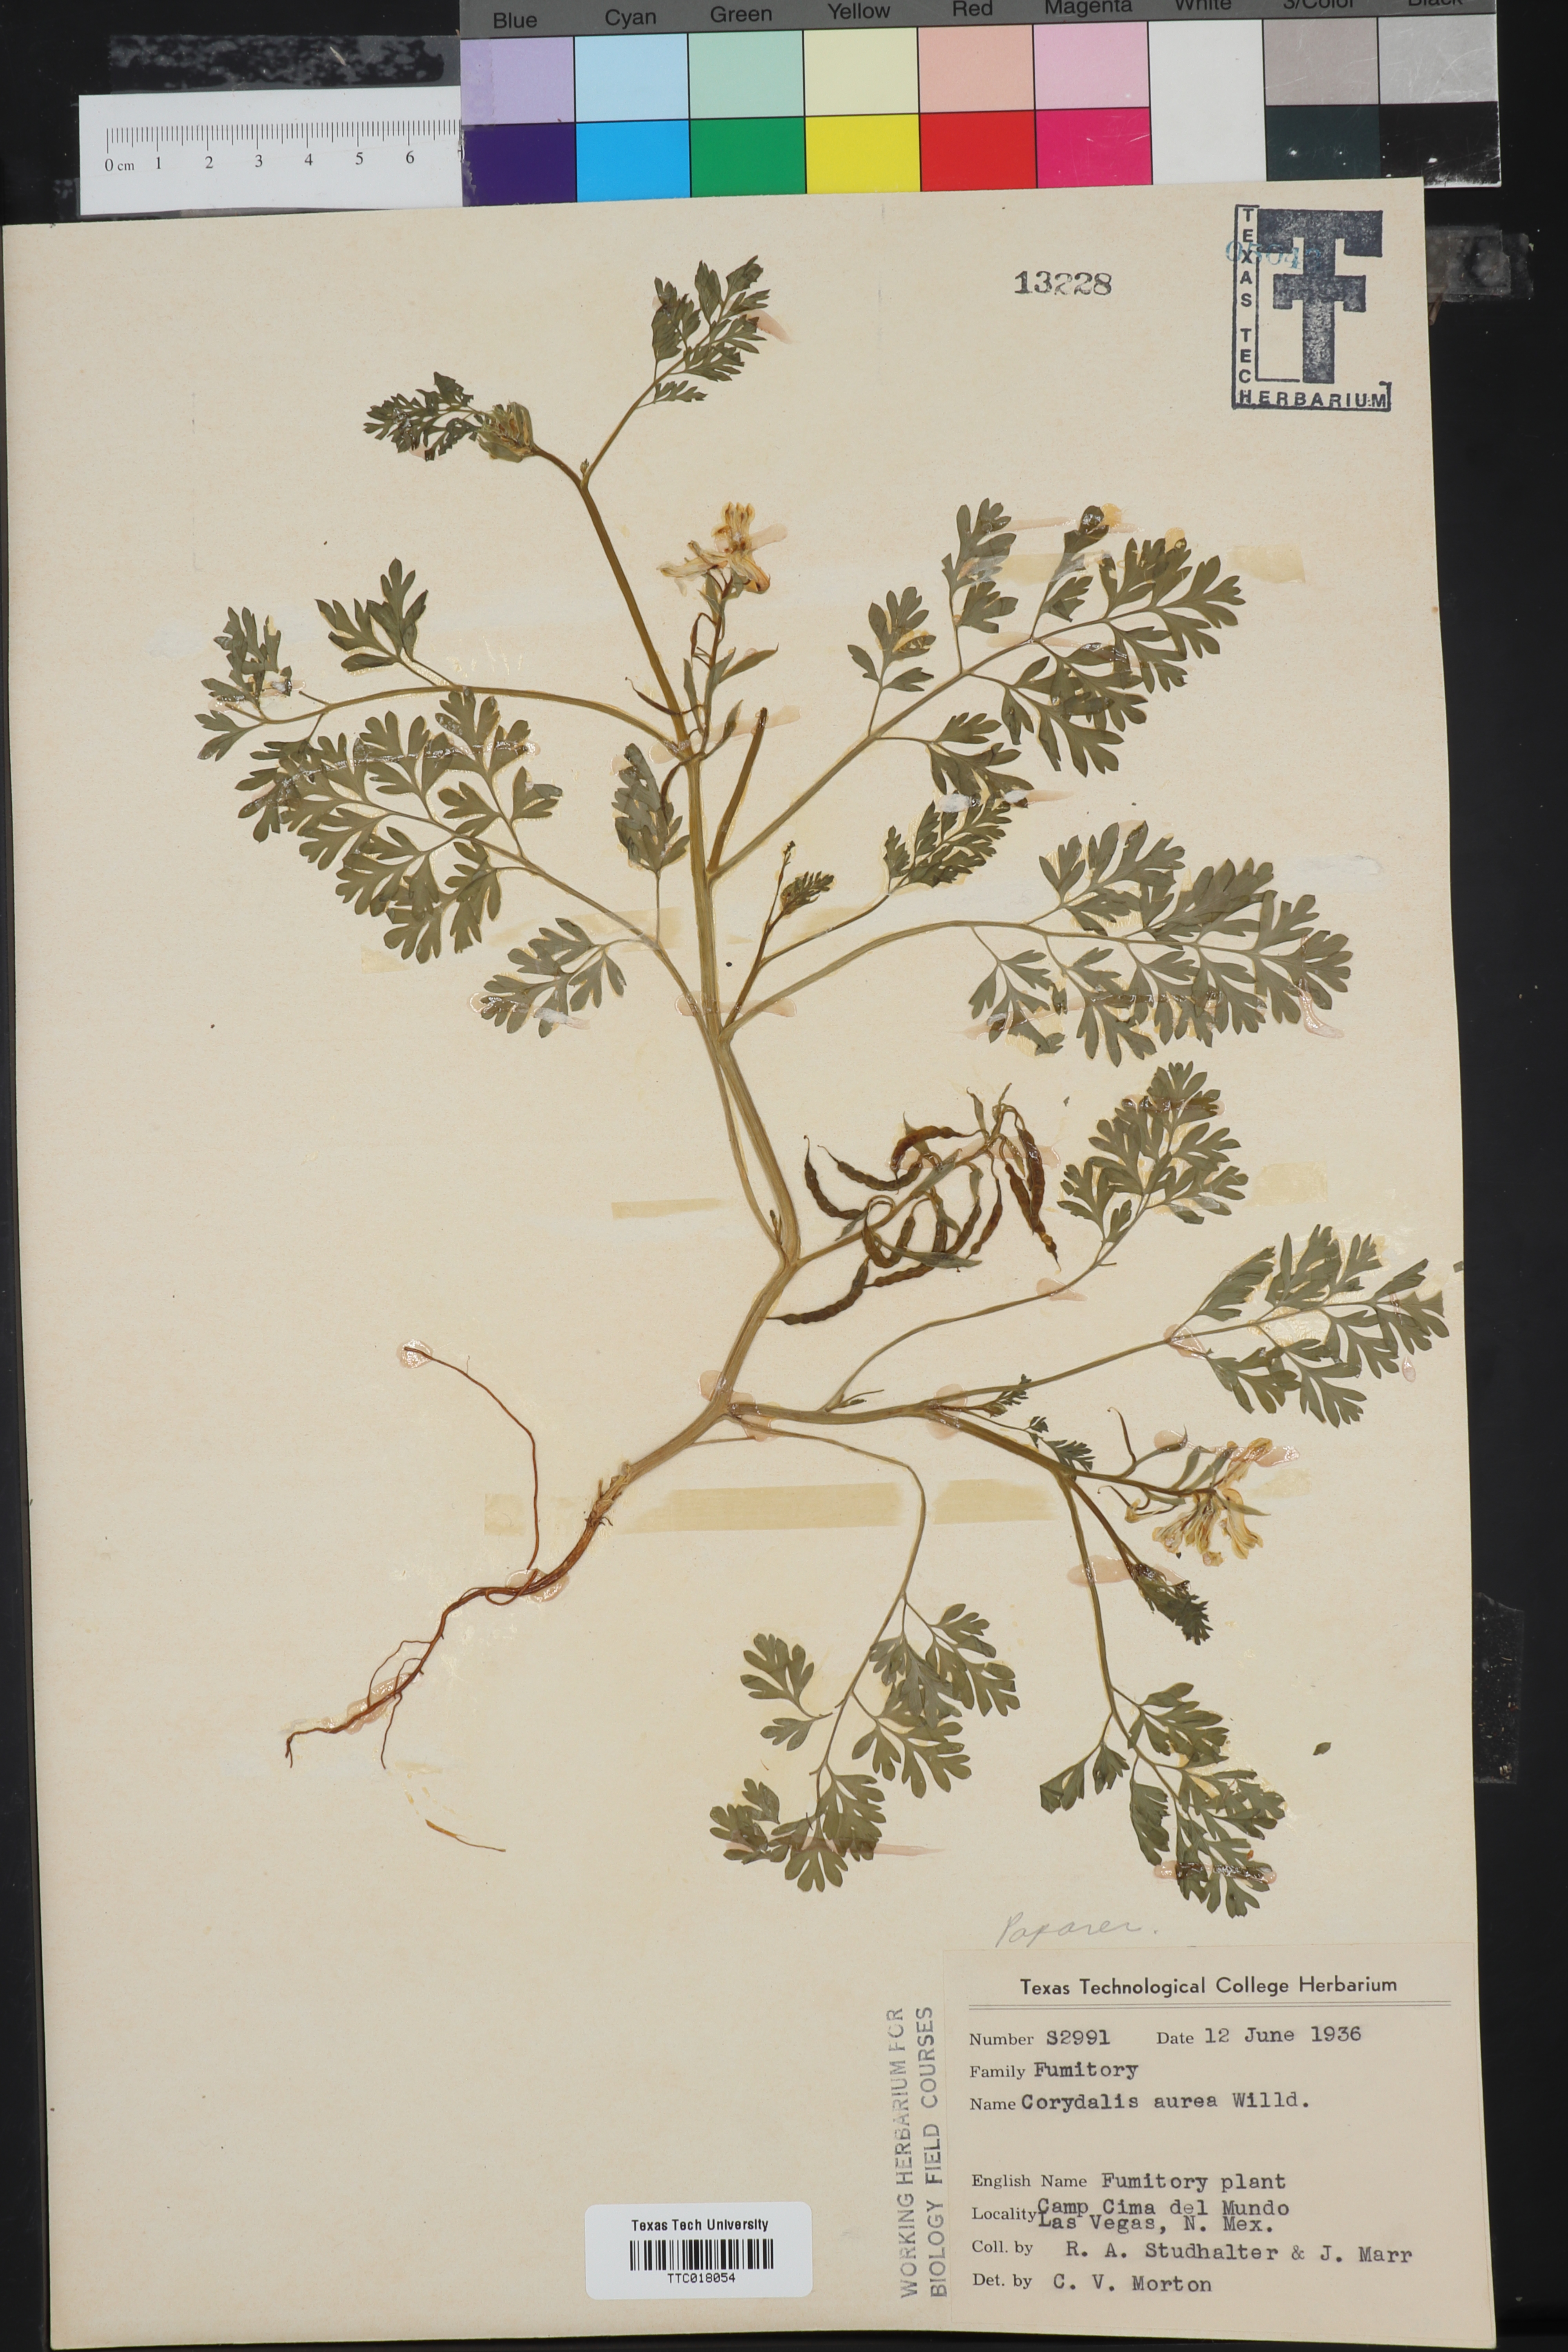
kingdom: Plantae
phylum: Tracheophyta
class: Magnoliopsida
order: Ranunculales
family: Papaveraceae
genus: Corydalis
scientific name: Corydalis aurea
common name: Golden corydalis
